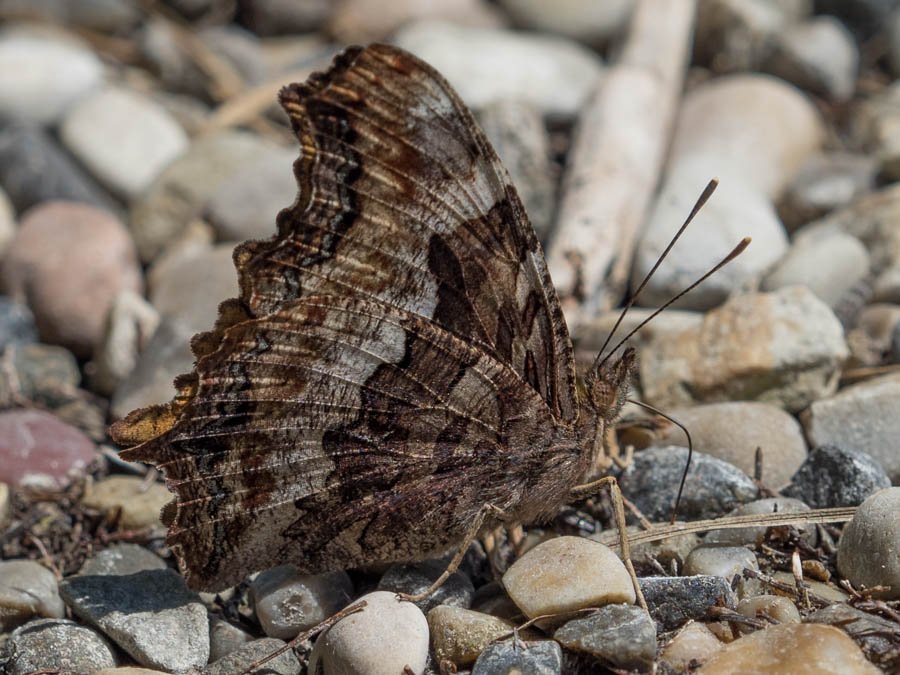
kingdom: Animalia
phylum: Arthropoda
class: Insecta
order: Lepidoptera
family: Nymphalidae
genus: Polygonia
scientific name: Polygonia vaualbum
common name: Compton Tortoiseshell
